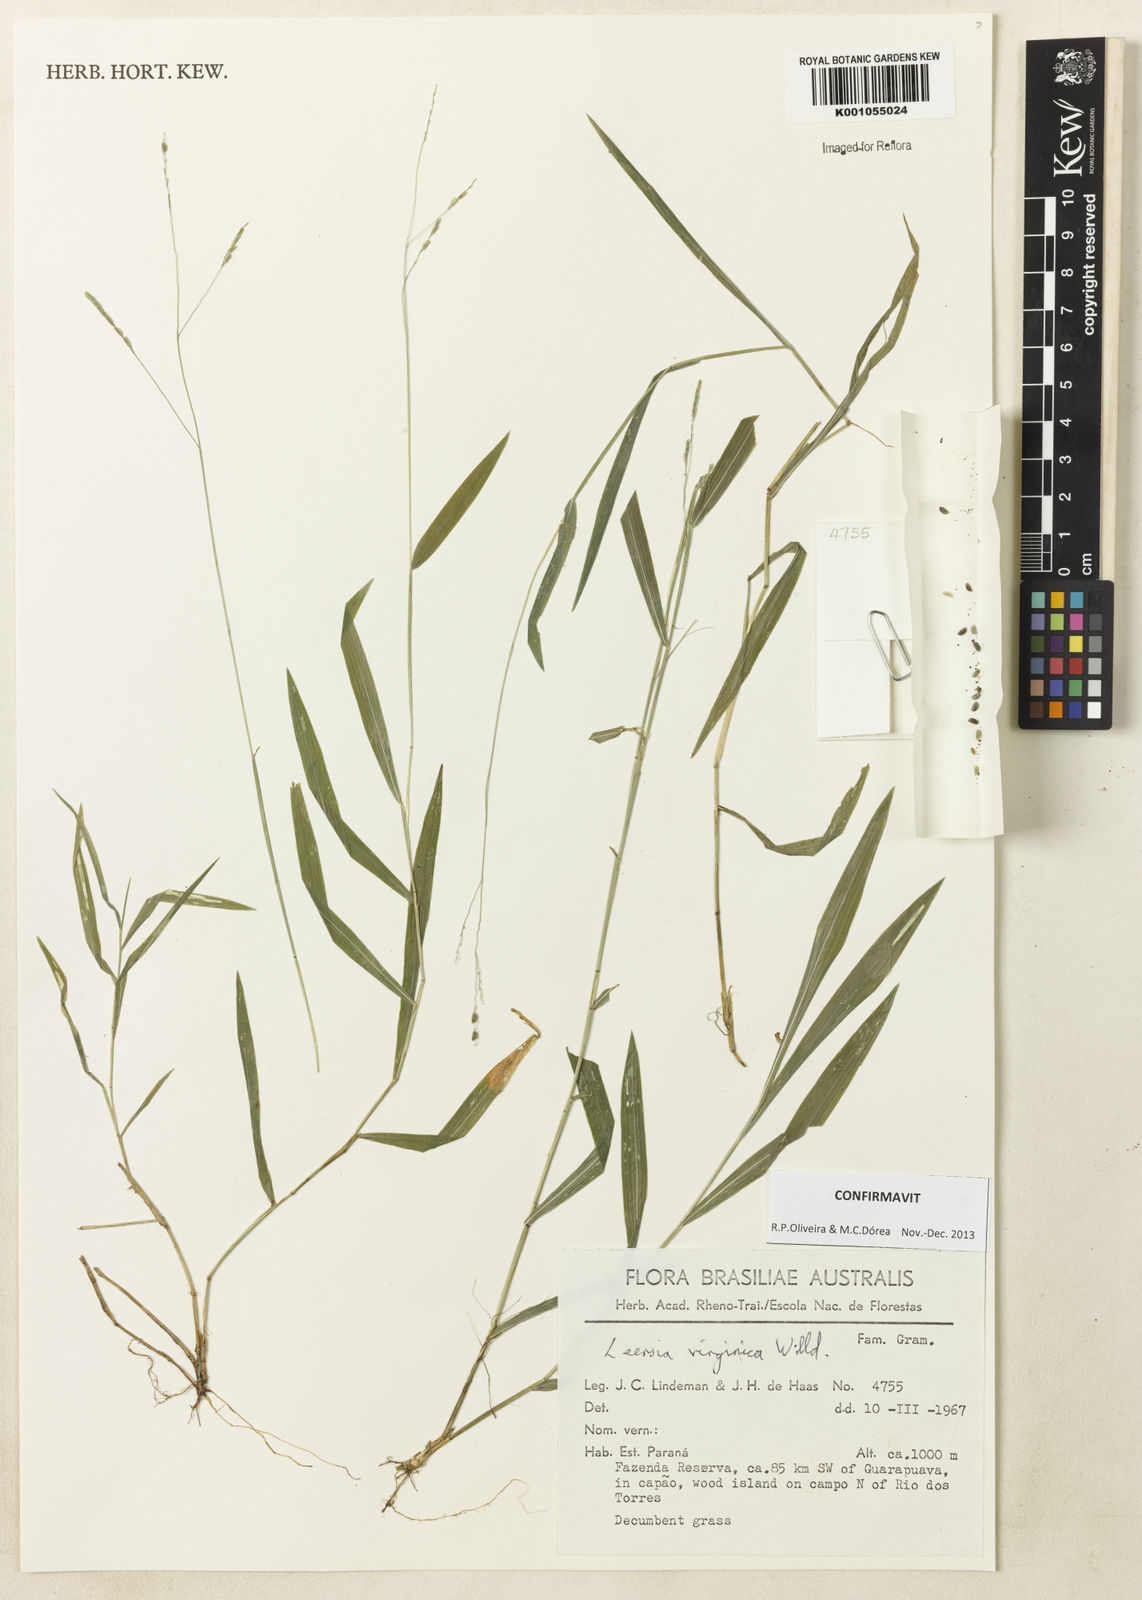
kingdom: Plantae
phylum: Tracheophyta
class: Liliopsida
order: Poales
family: Poaceae
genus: Leersia
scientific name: Leersia virginica
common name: White cutgrass
